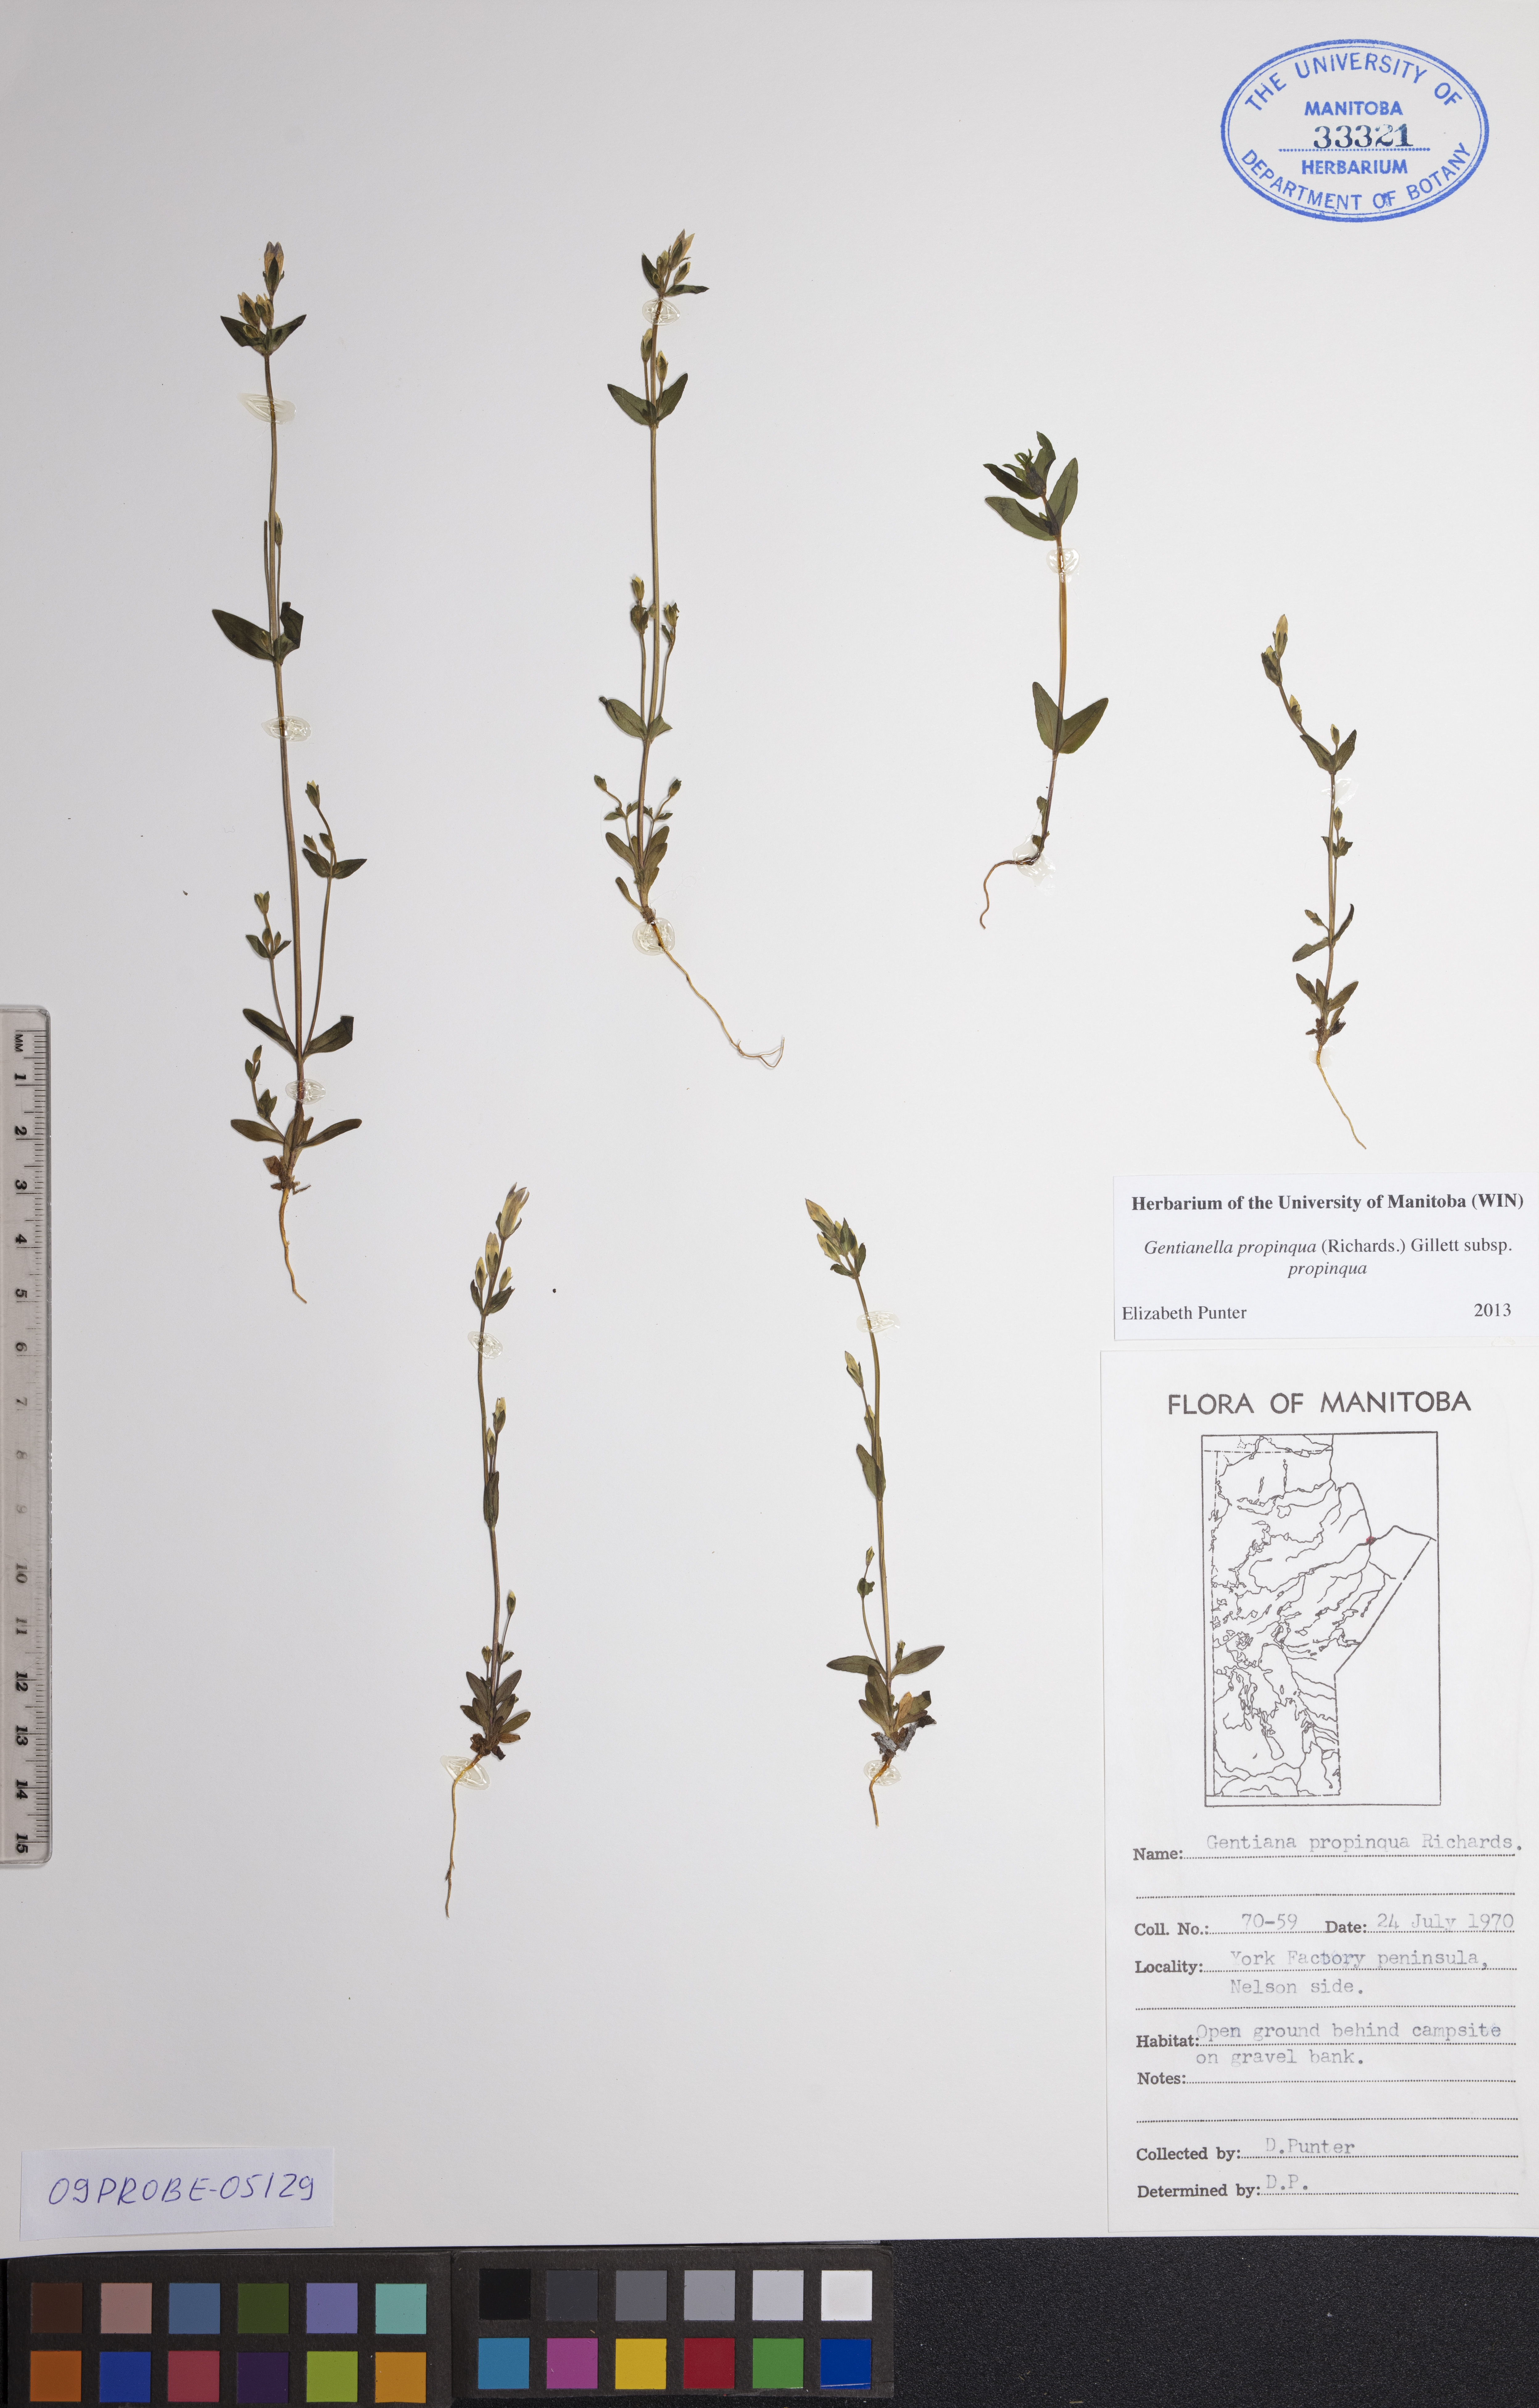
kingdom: Plantae
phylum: Tracheophyta
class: Magnoliopsida
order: Gentianales
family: Gentianaceae
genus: Gentianella
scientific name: Gentianella propinqua
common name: Four-parted dwarf-gentian
